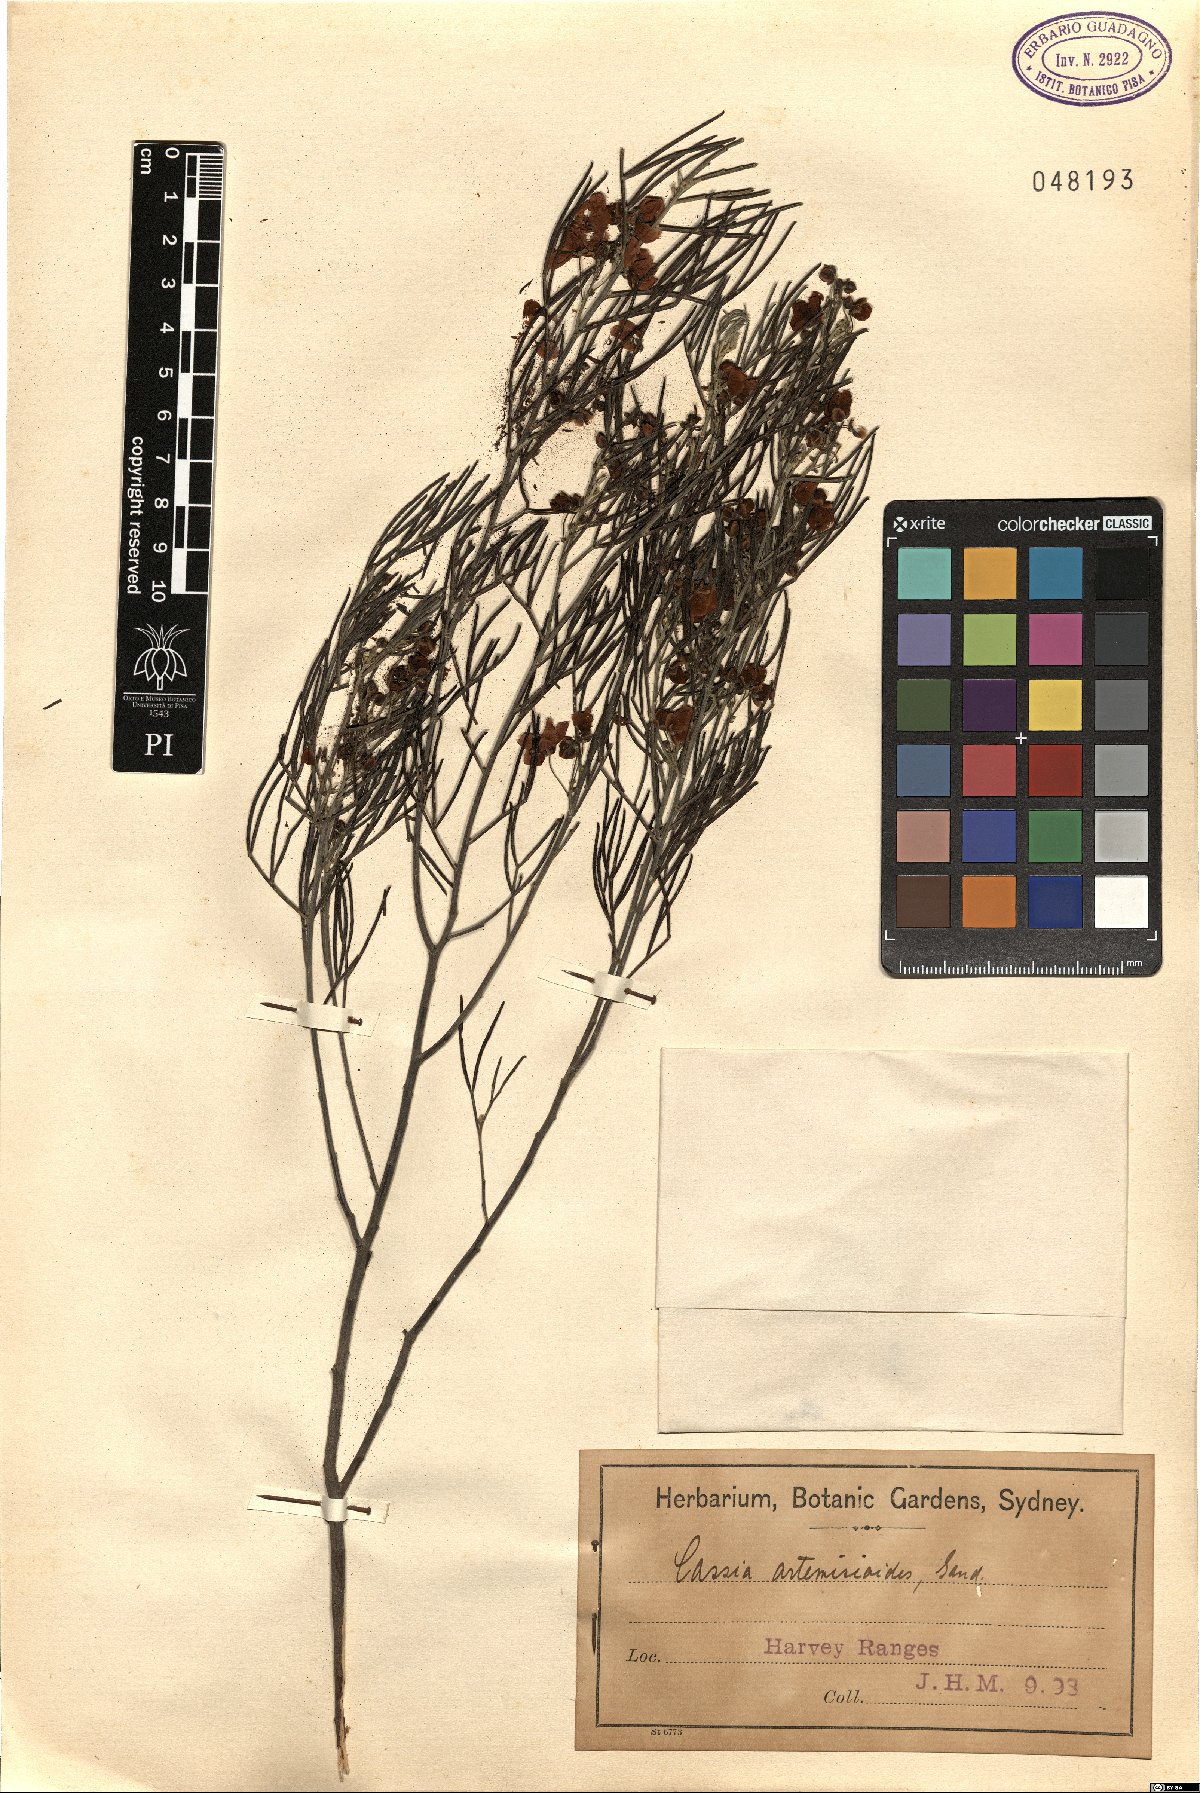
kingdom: Plantae
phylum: Tracheophyta
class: Magnoliopsida
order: Fabales
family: Fabaceae
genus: Senna
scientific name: Senna artemisioides
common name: Burnt-leaved acacia
